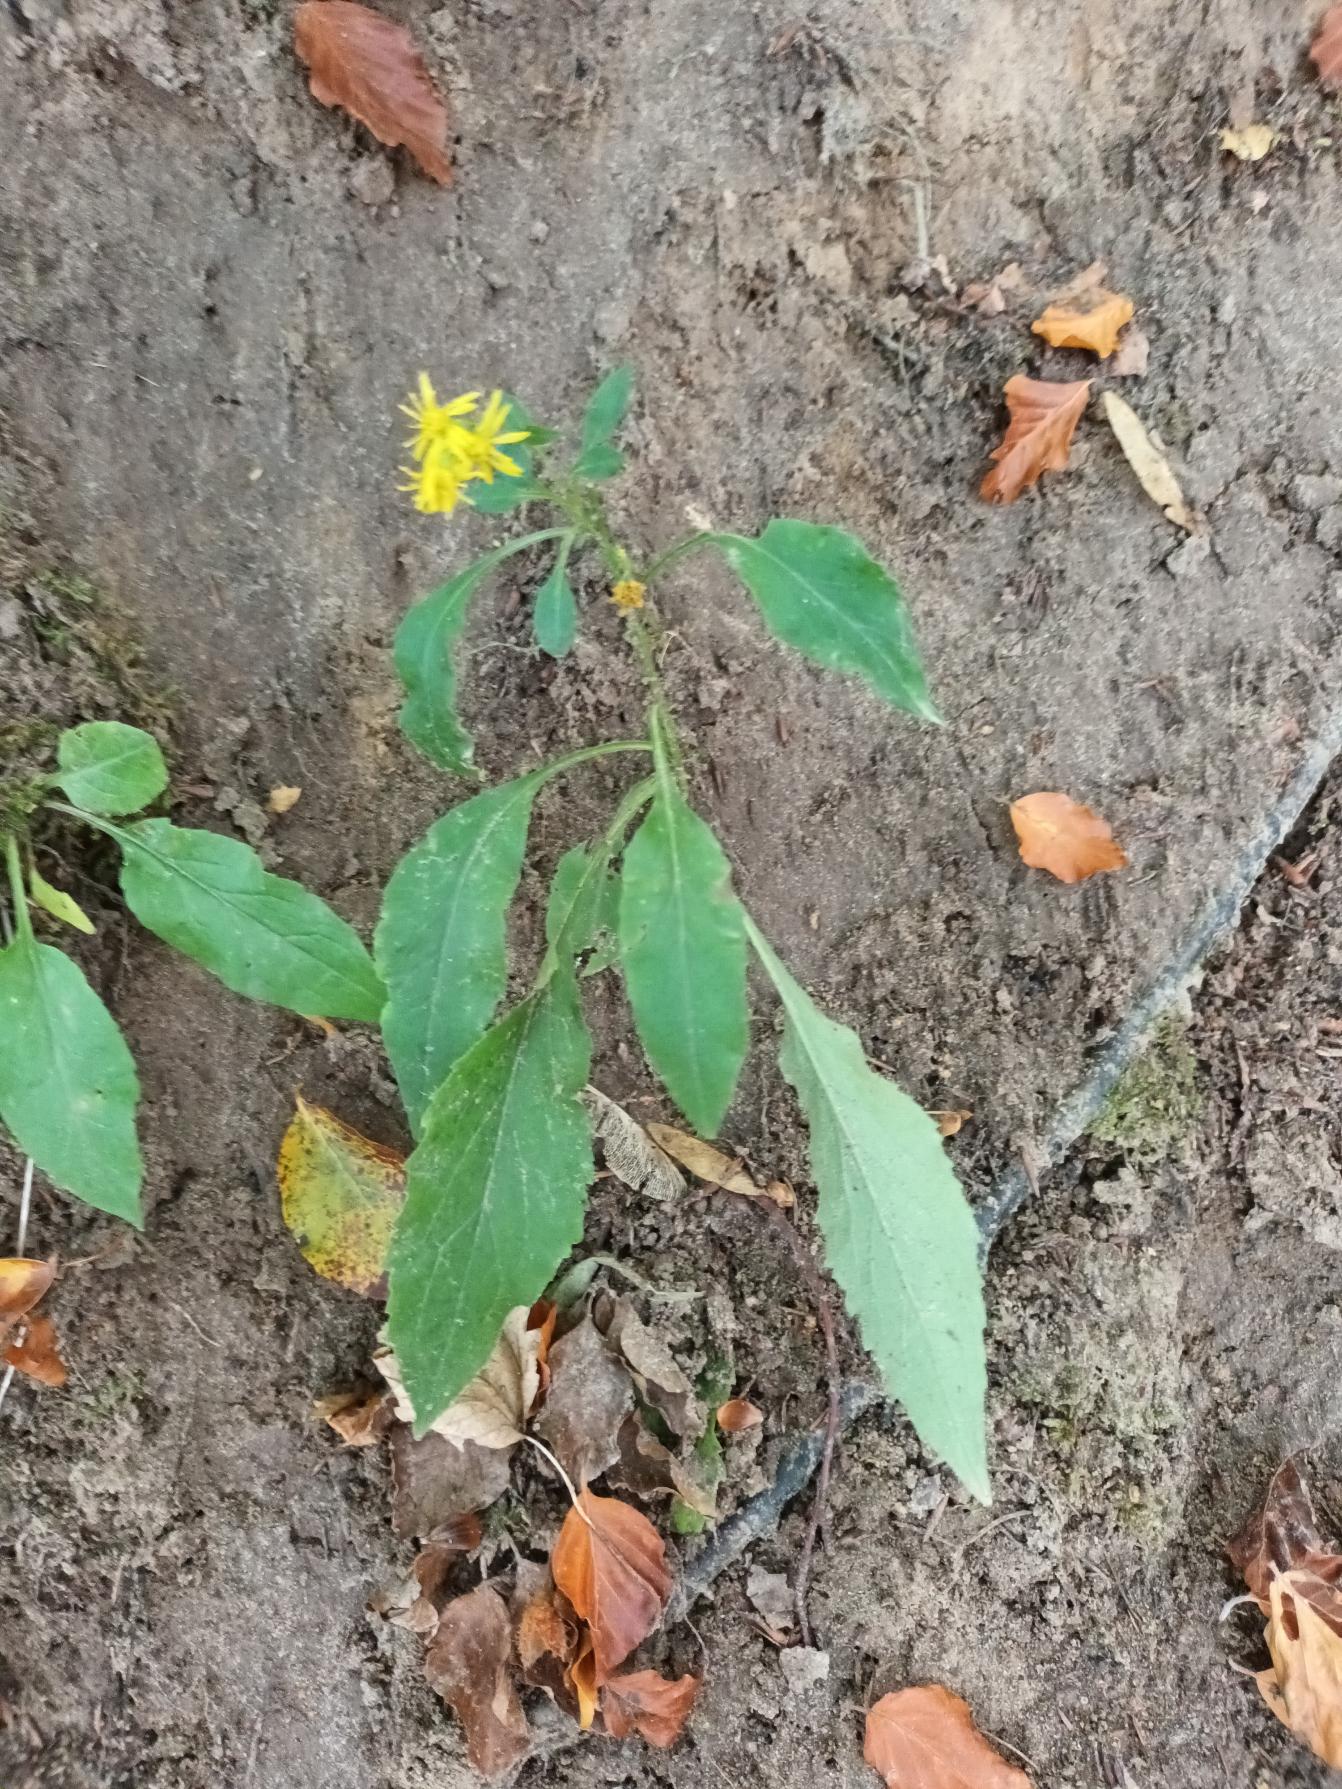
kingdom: Plantae
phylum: Tracheophyta
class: Magnoliopsida
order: Asterales
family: Asteraceae
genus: Solidago
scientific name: Solidago virgaurea
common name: Almindelig gyldenris
